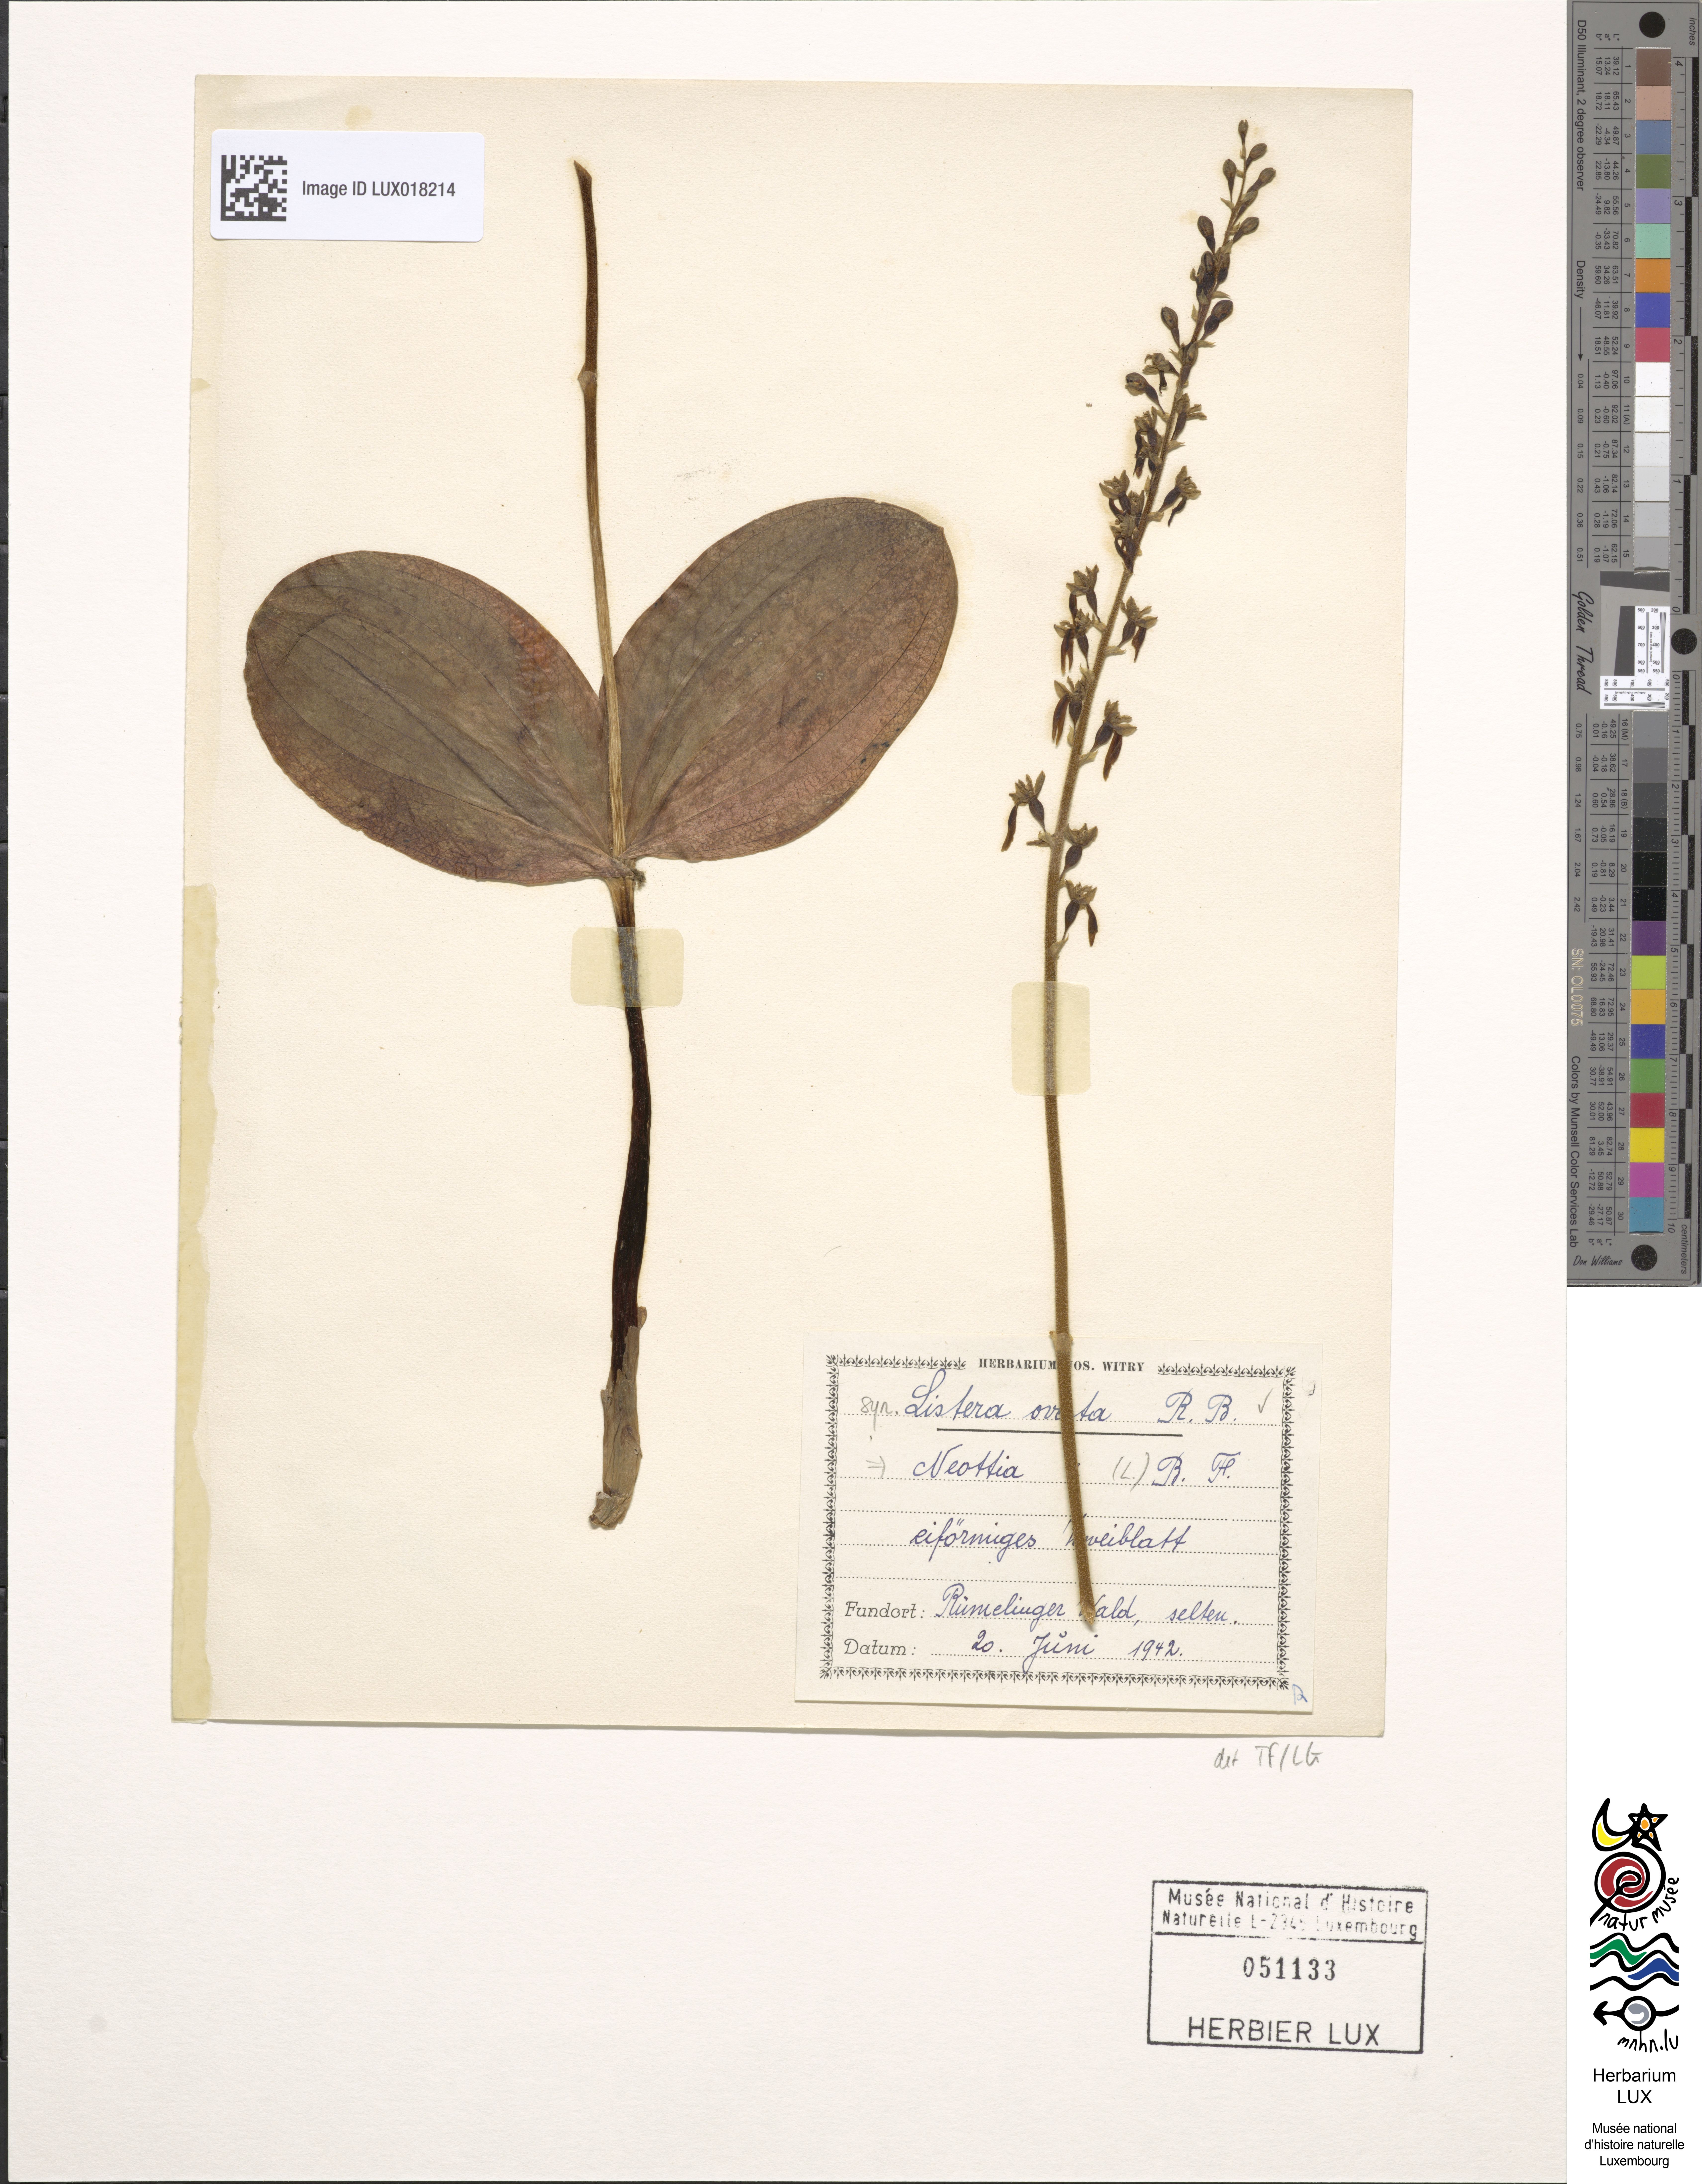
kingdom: Plantae
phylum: Tracheophyta
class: Liliopsida
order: Asparagales
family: Orchidaceae
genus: Neottia
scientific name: Neottia ovata
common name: Common twayblade
